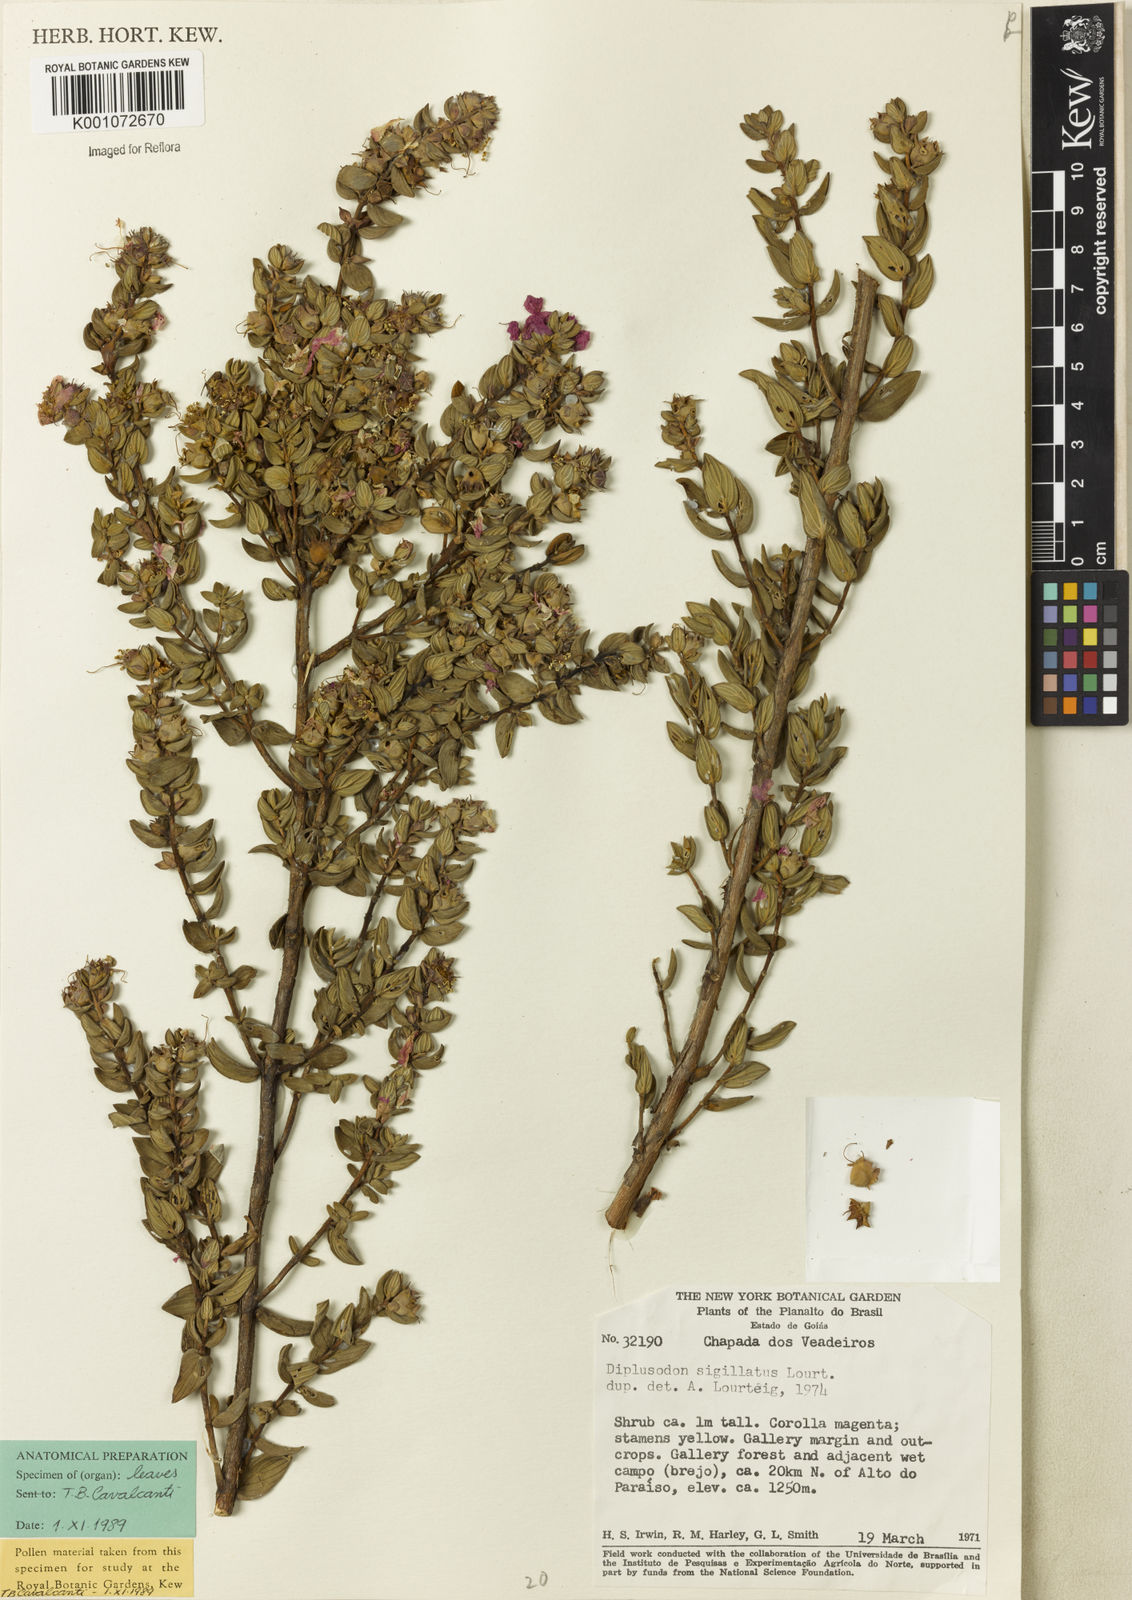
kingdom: Plantae
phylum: Tracheophyta
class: Magnoliopsida
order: Myrtales
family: Lythraceae
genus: Diplusodon
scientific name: Diplusodon sigillatus
